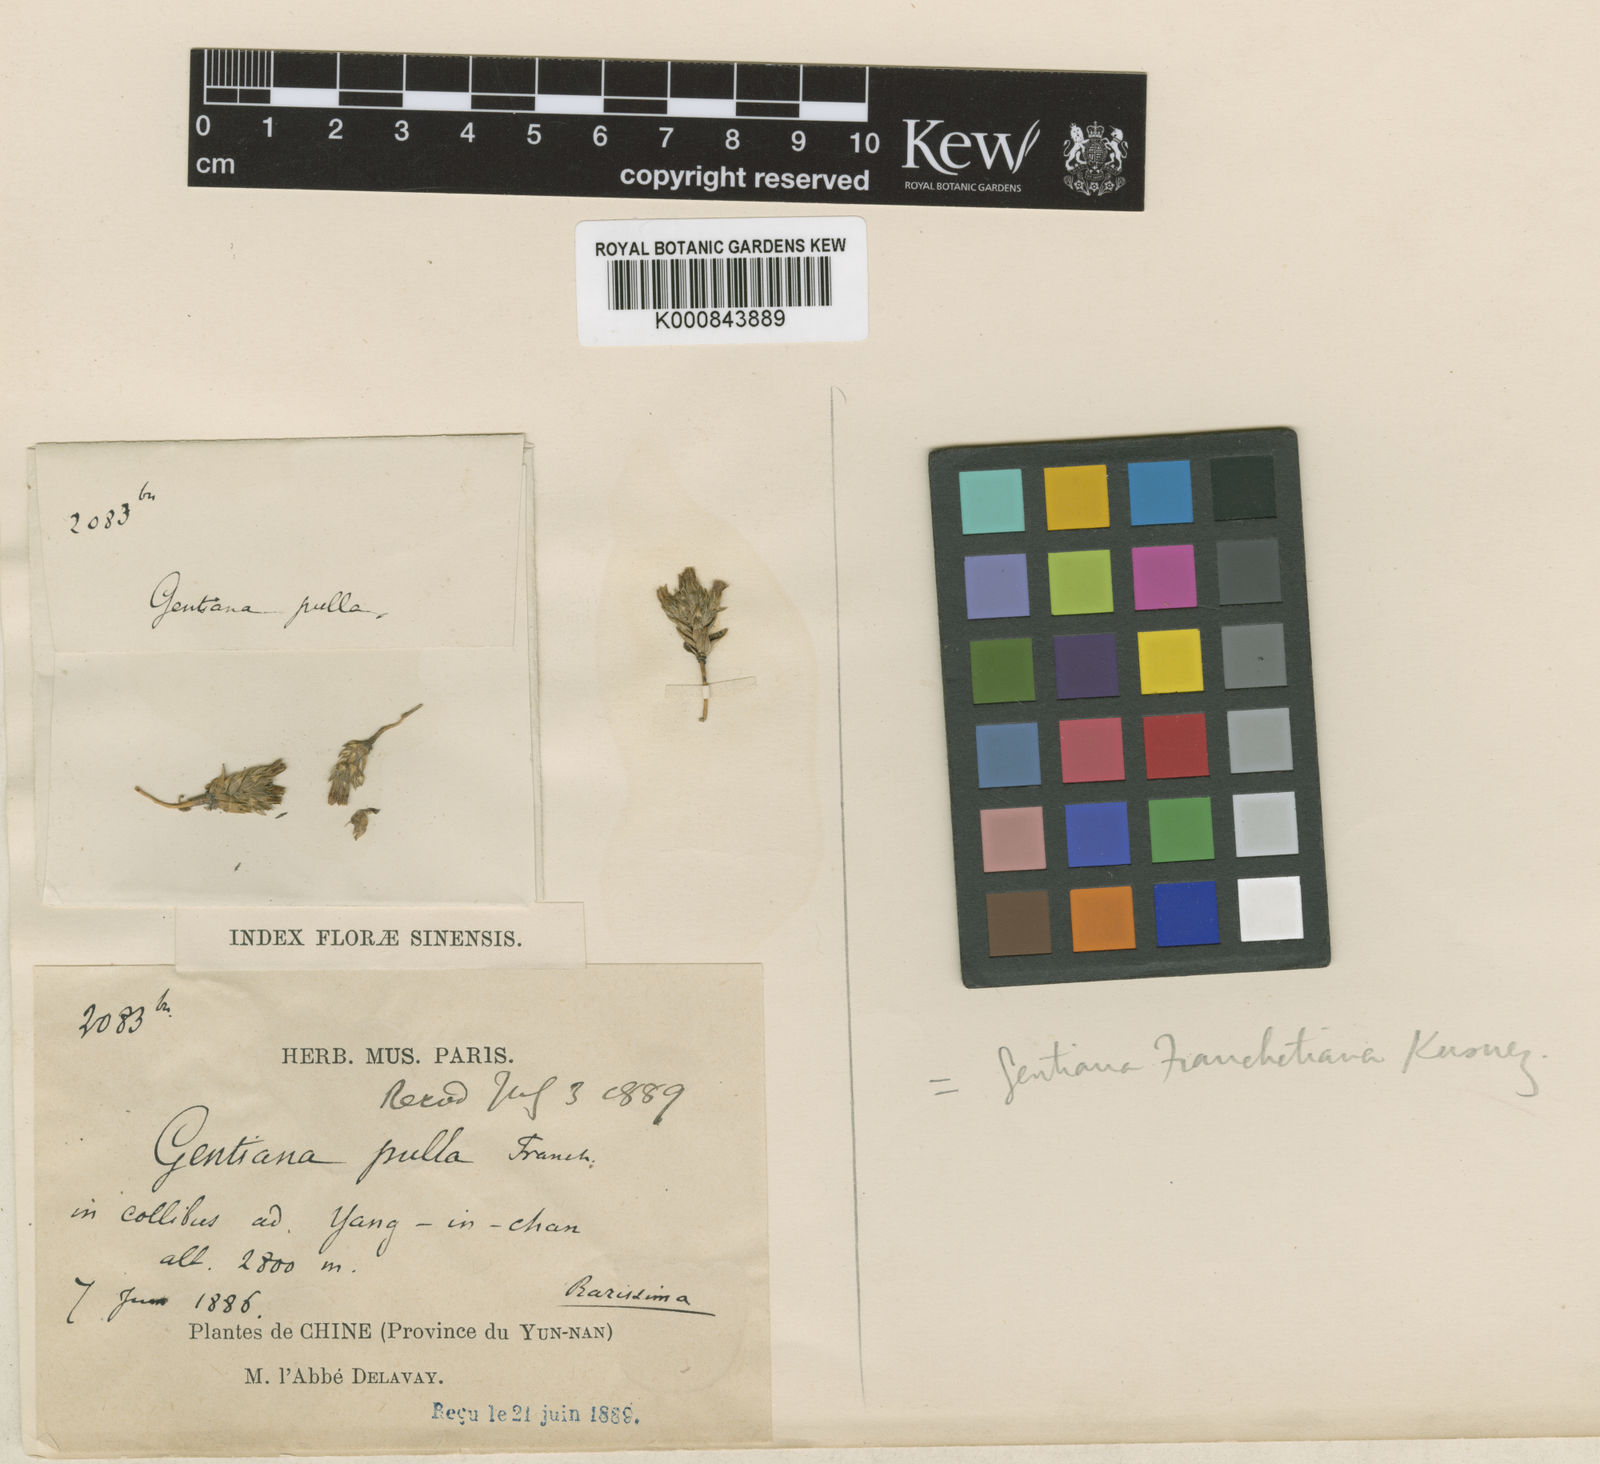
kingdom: Plantae
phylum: Tracheophyta
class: Magnoliopsida
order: Gentianales
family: Gentianaceae
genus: Gentiana
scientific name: Gentiana franchetiana
